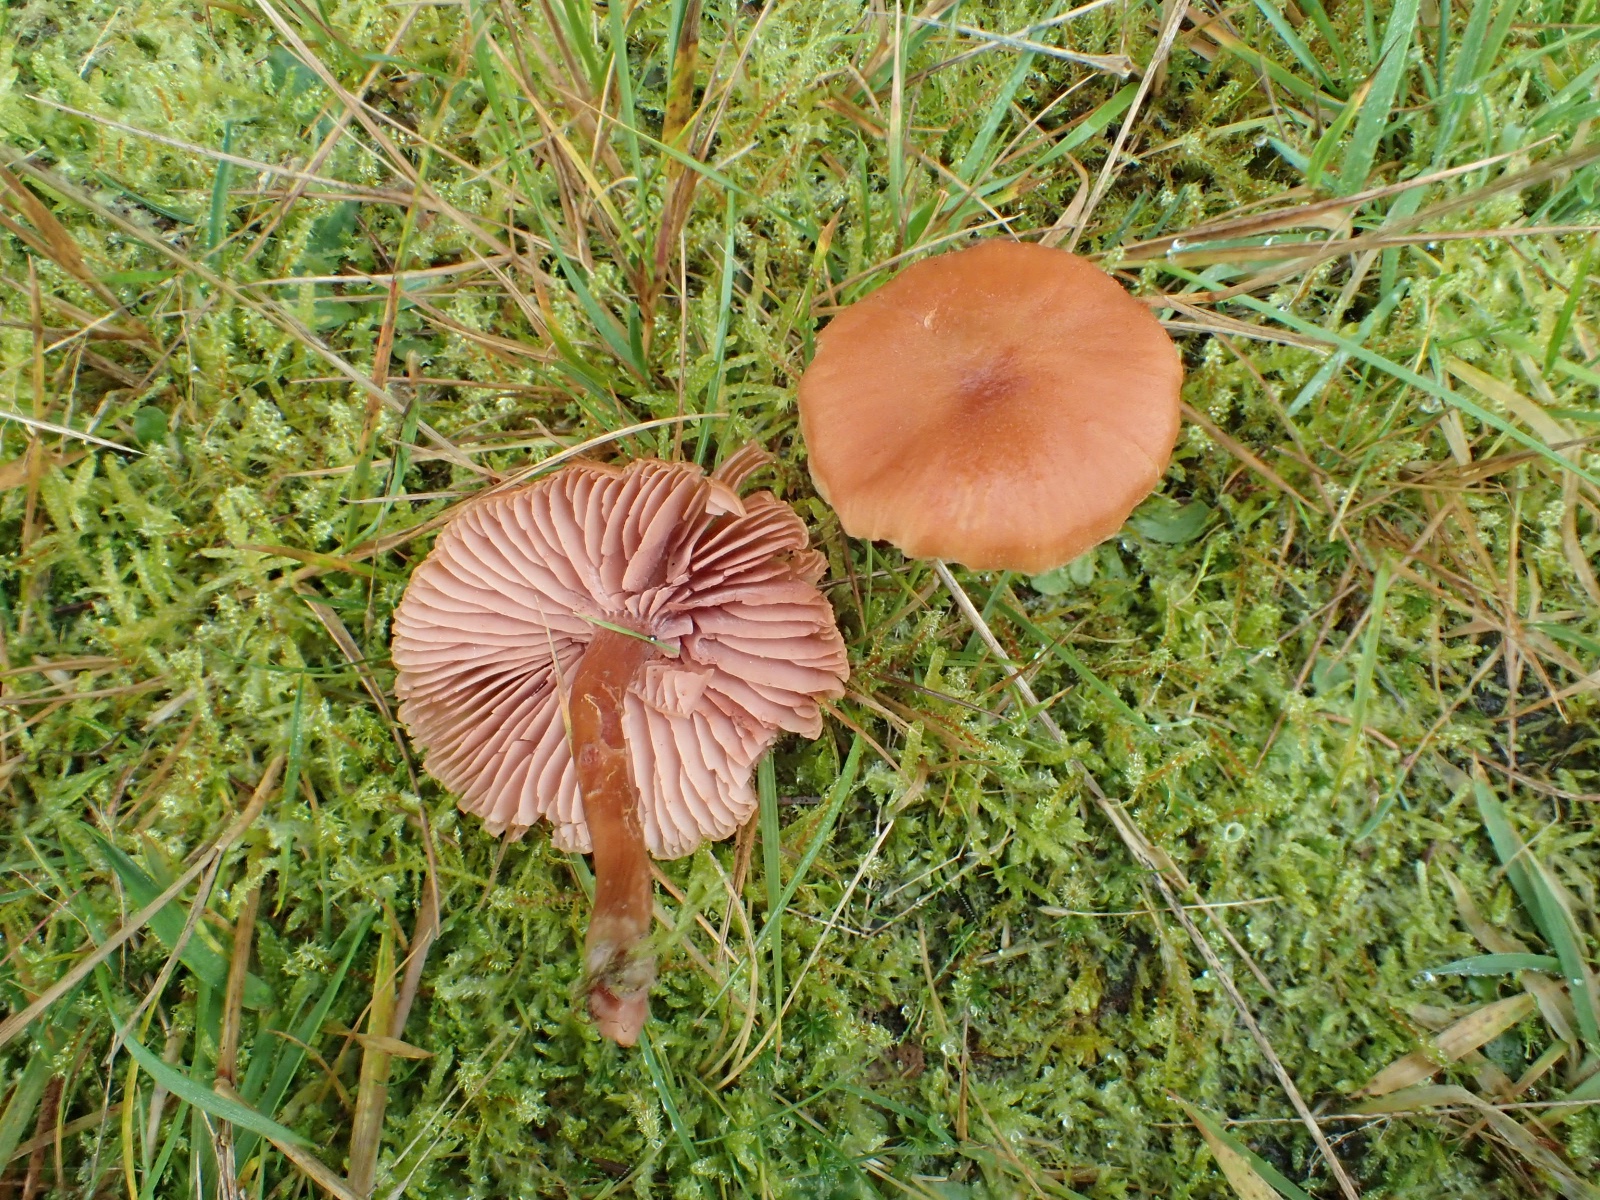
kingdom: Fungi
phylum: Basidiomycota
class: Agaricomycetes
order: Agaricales
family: Hydnangiaceae
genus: Laccaria
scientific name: Laccaria laccata
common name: rød ametysthat
